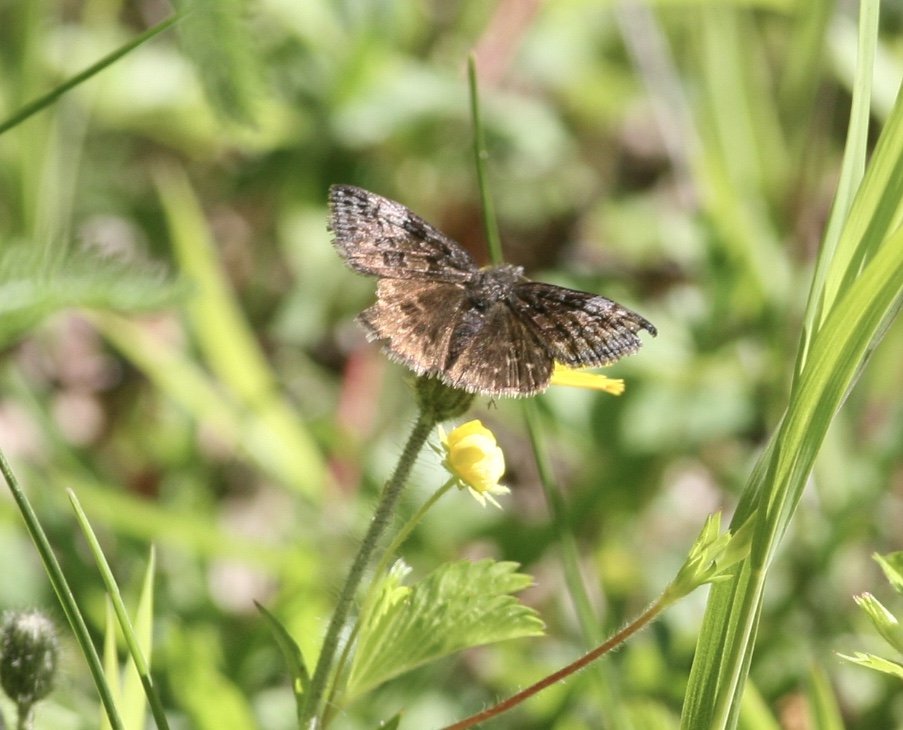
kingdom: Animalia
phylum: Arthropoda
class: Insecta
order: Lepidoptera
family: Hesperiidae
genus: Erynnis
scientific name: Erynnis icelus
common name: Dreamy Duskywing
